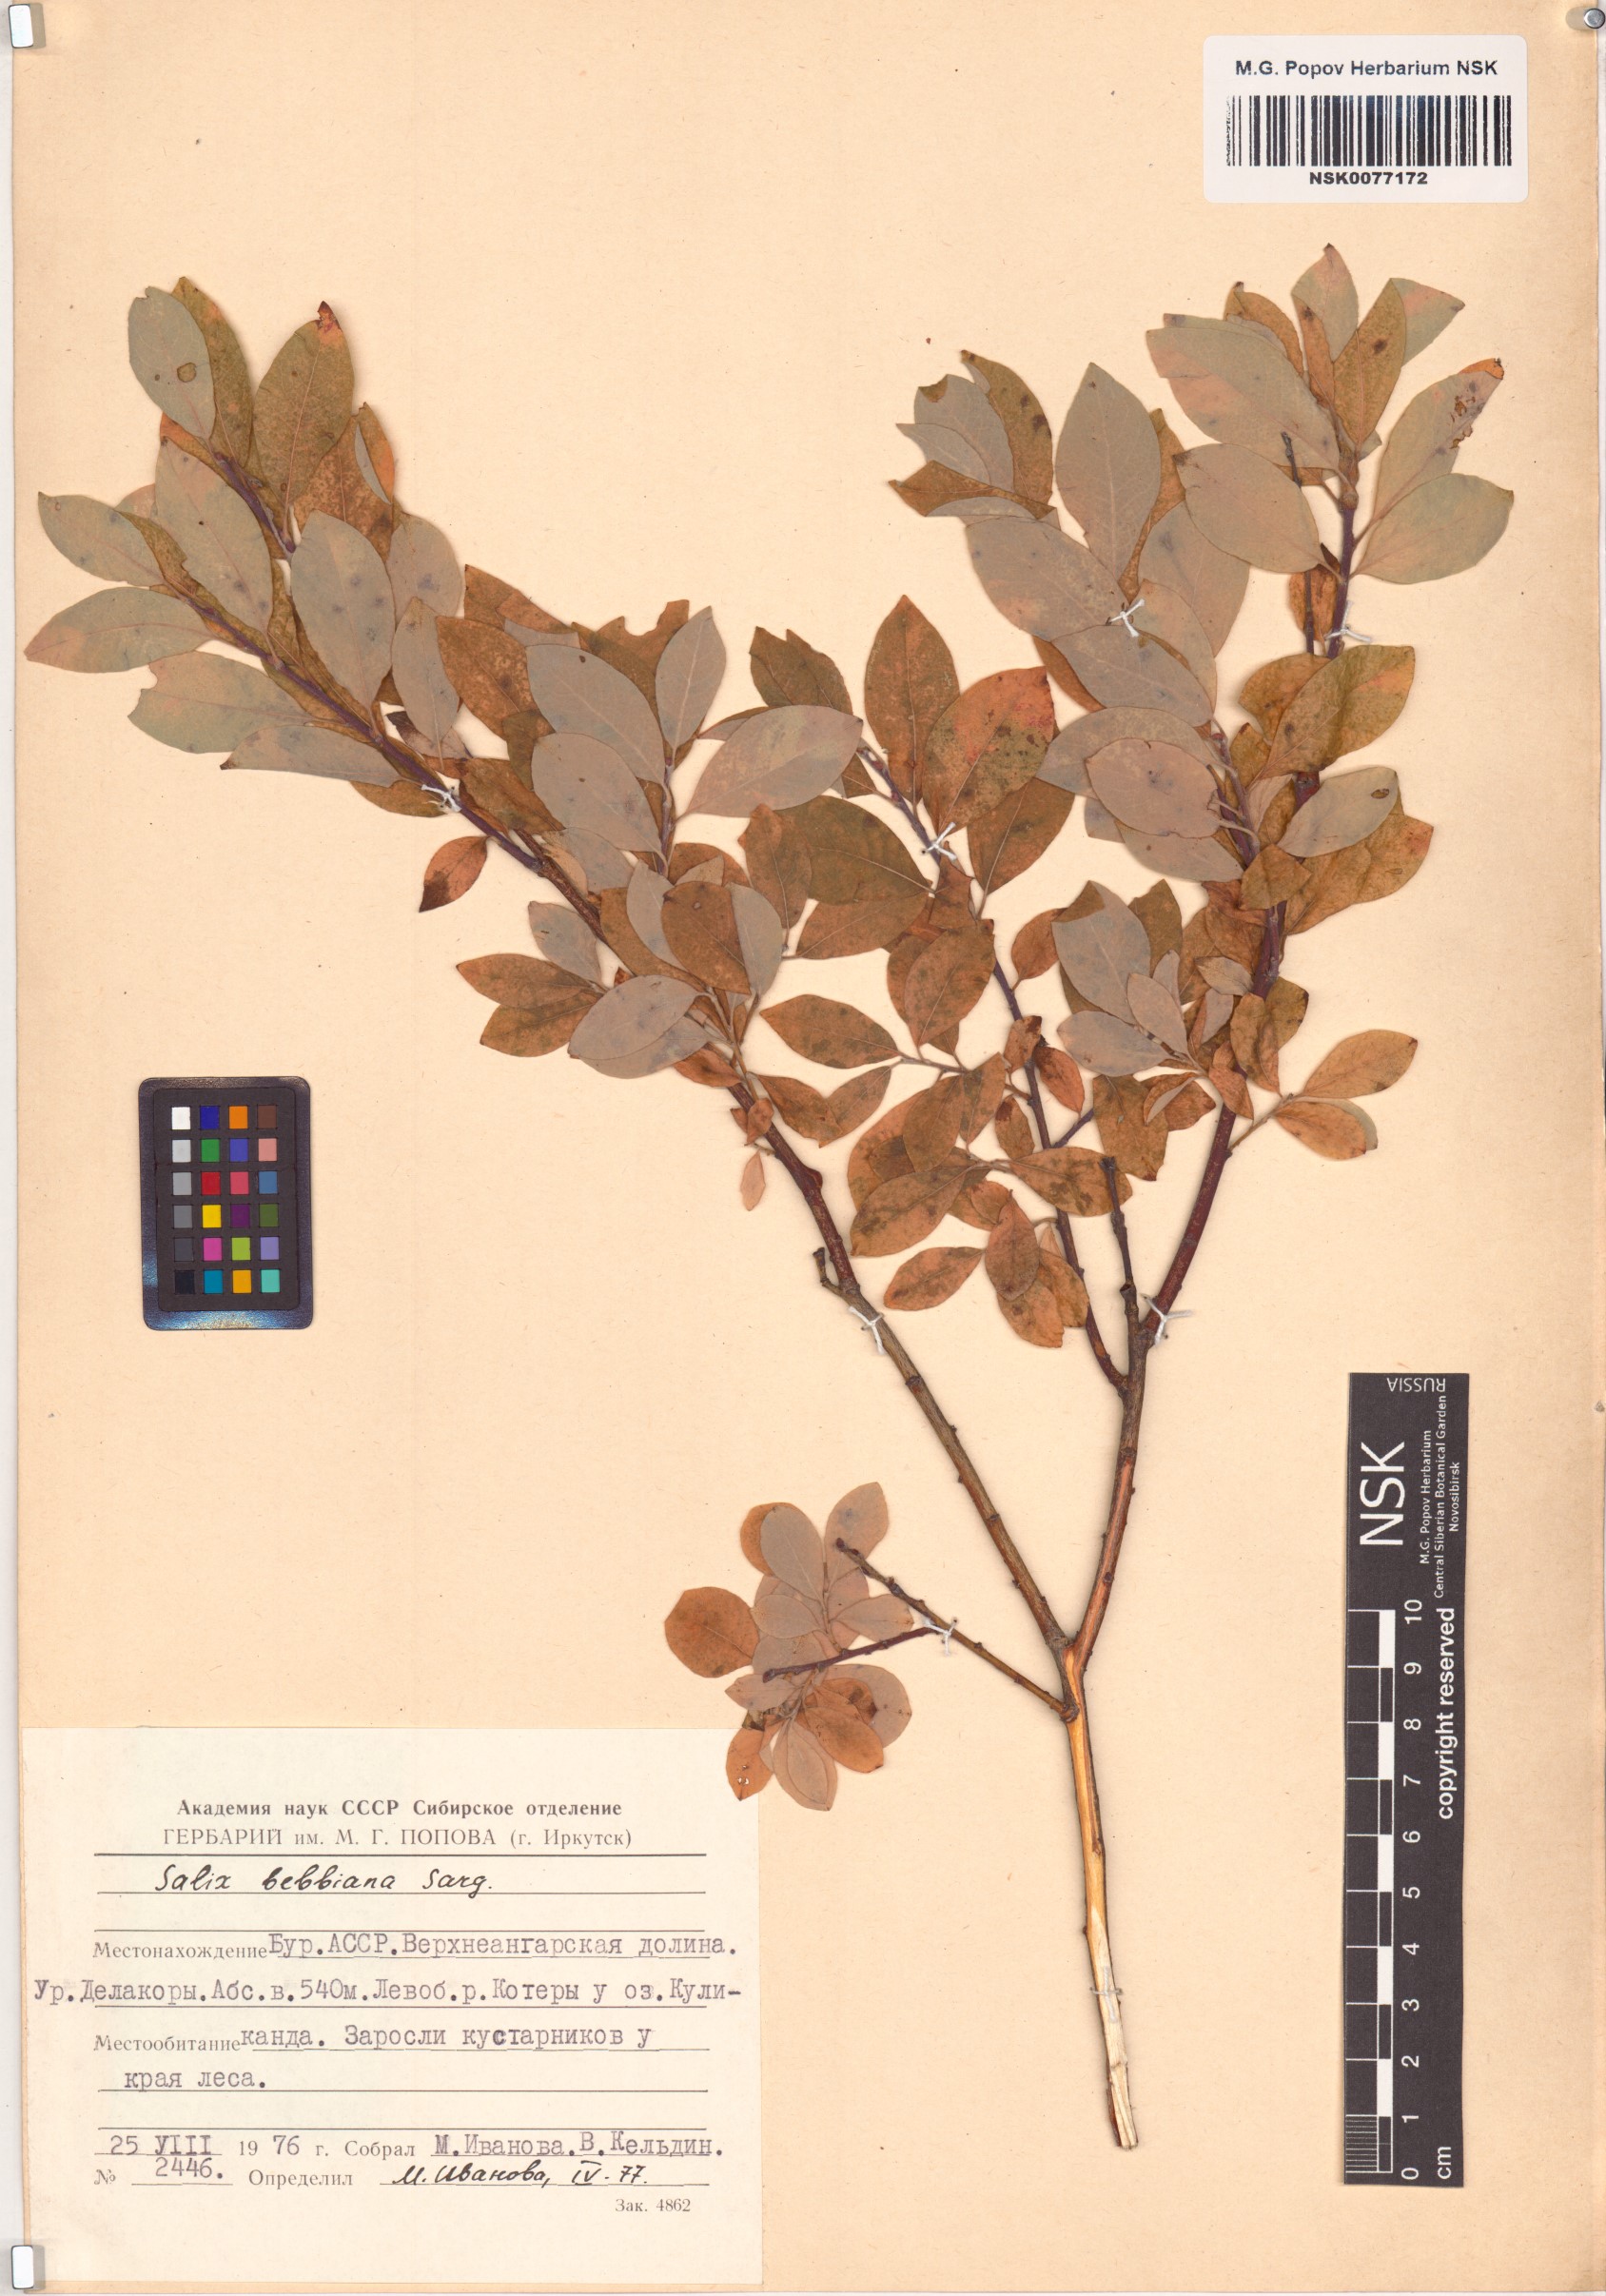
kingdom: Plantae
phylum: Tracheophyta
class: Magnoliopsida
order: Malpighiales
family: Salicaceae
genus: Salix
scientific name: Salix bebbiana
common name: Bebb's willow
